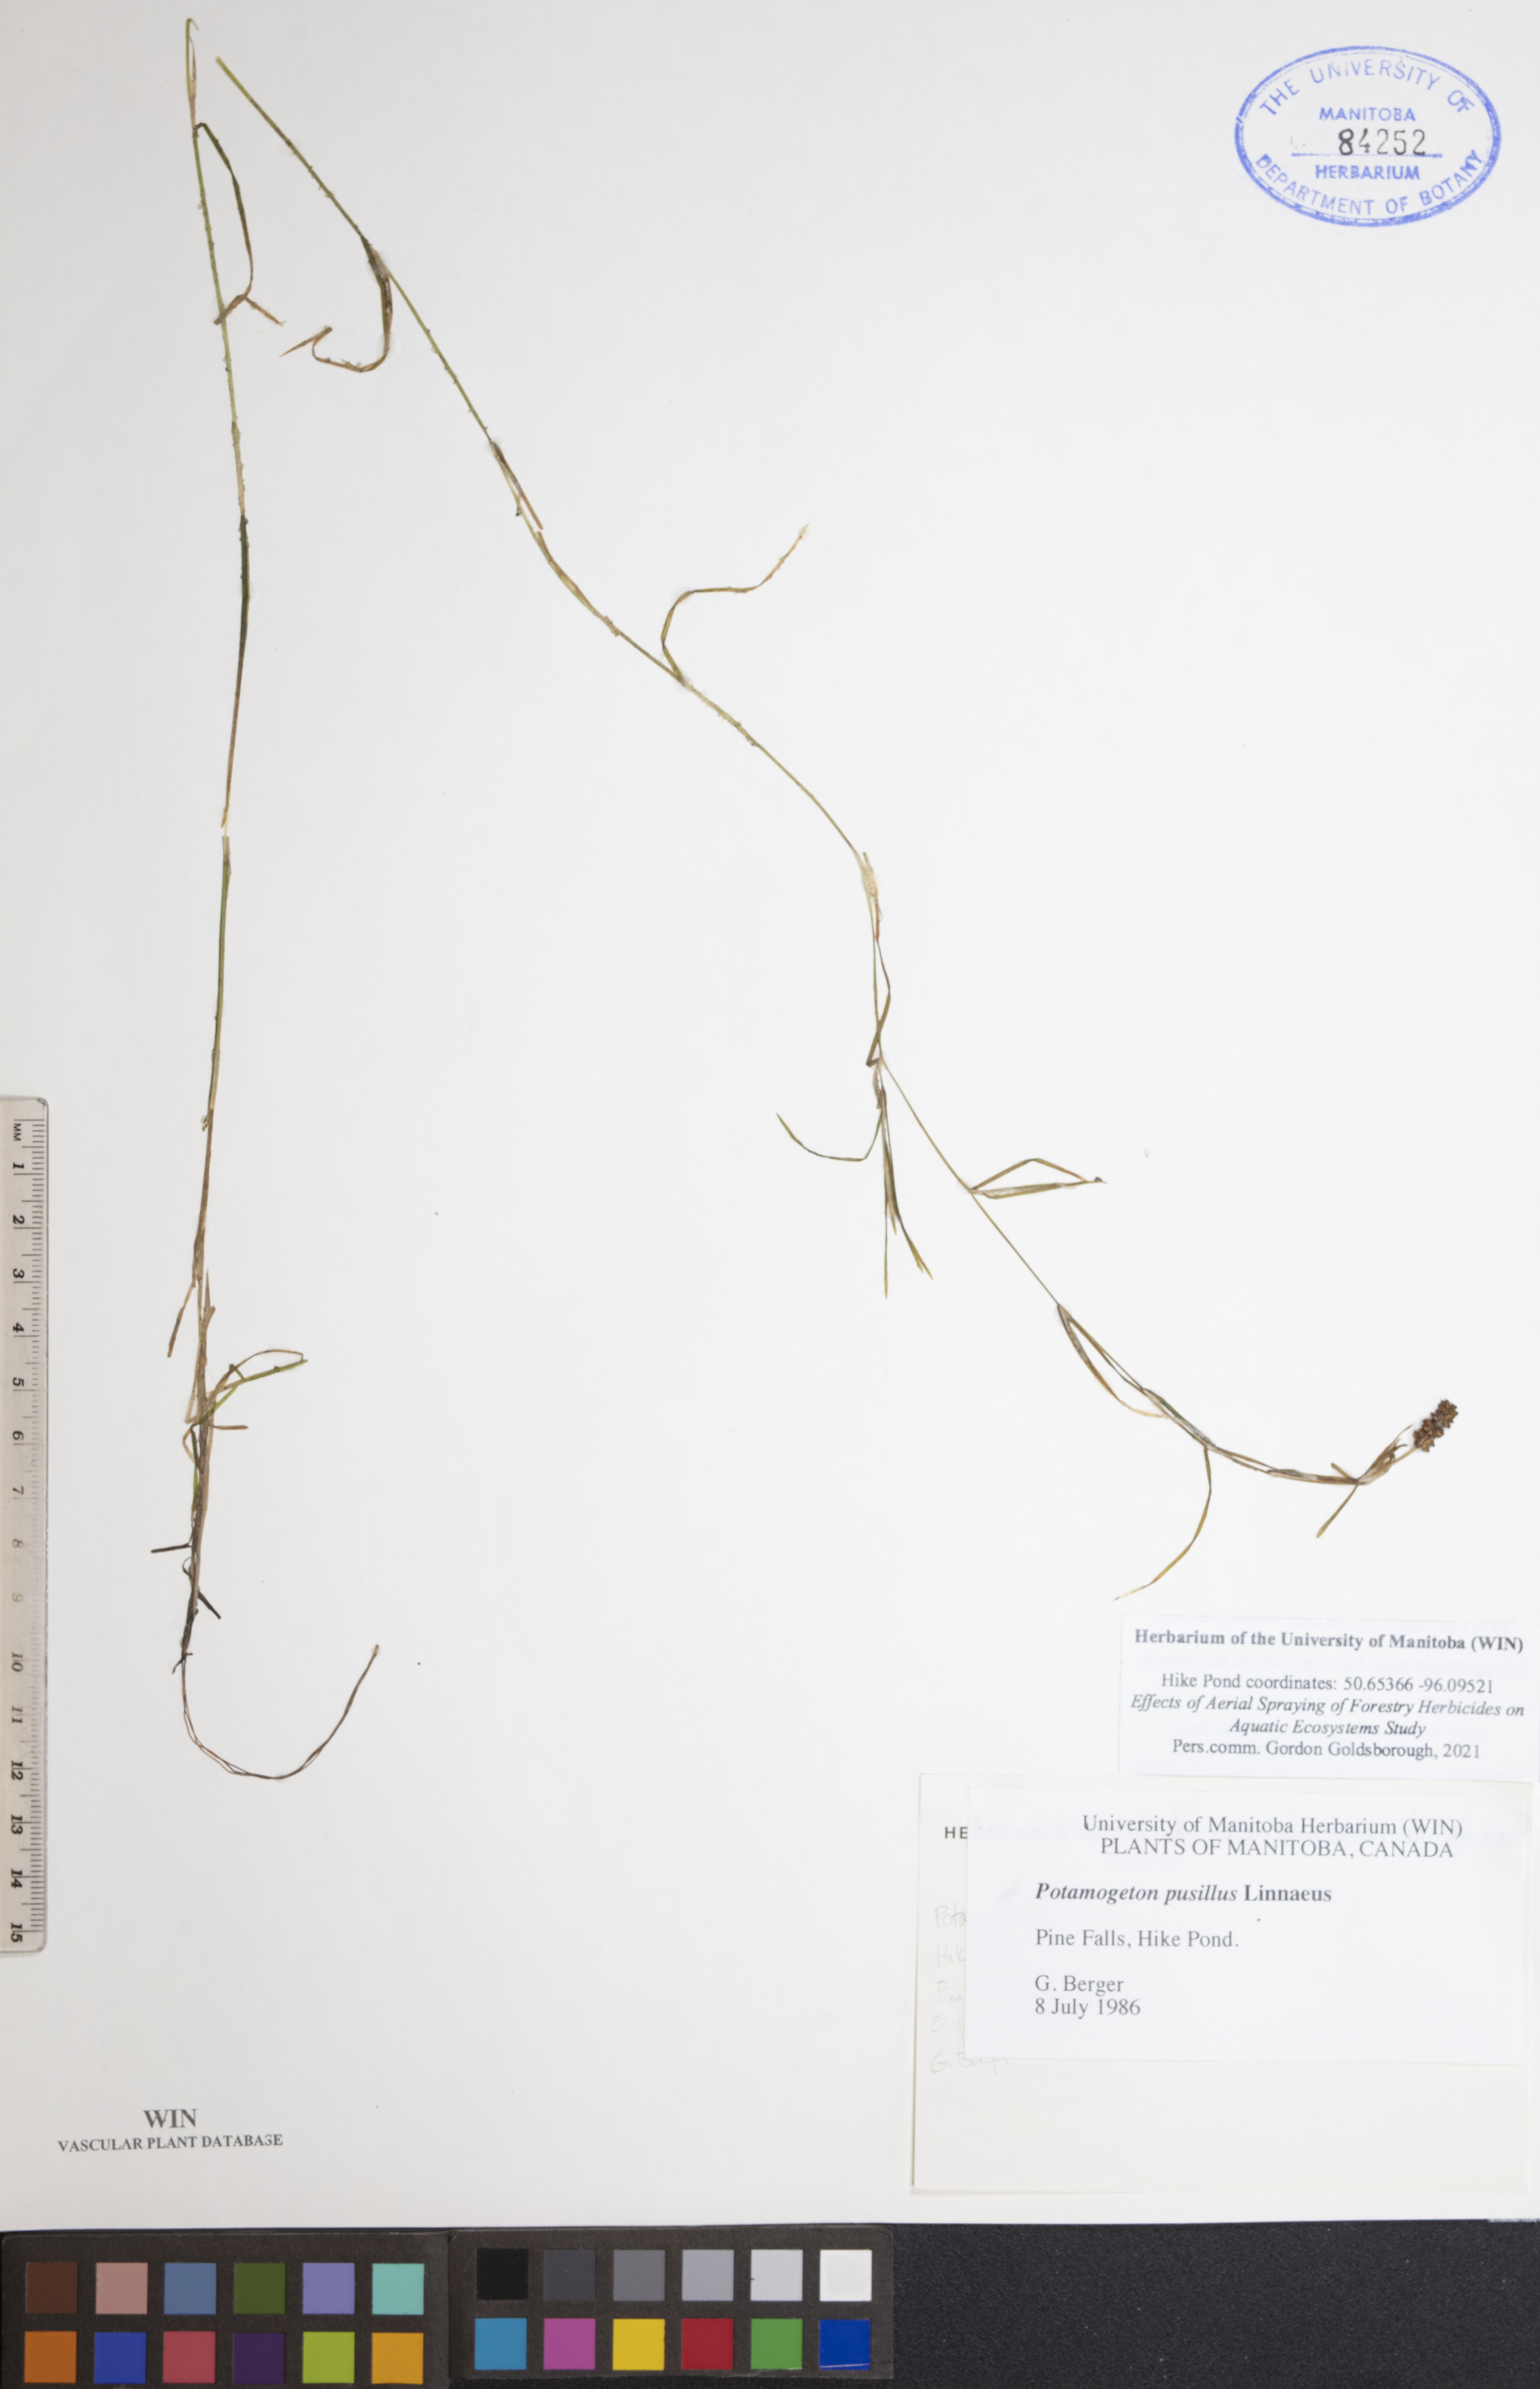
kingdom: Plantae
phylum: Tracheophyta
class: Liliopsida
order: Alismatales
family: Potamogetonaceae
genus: Potamogeton
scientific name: Potamogeton pusillus
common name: Lesser pondweed
